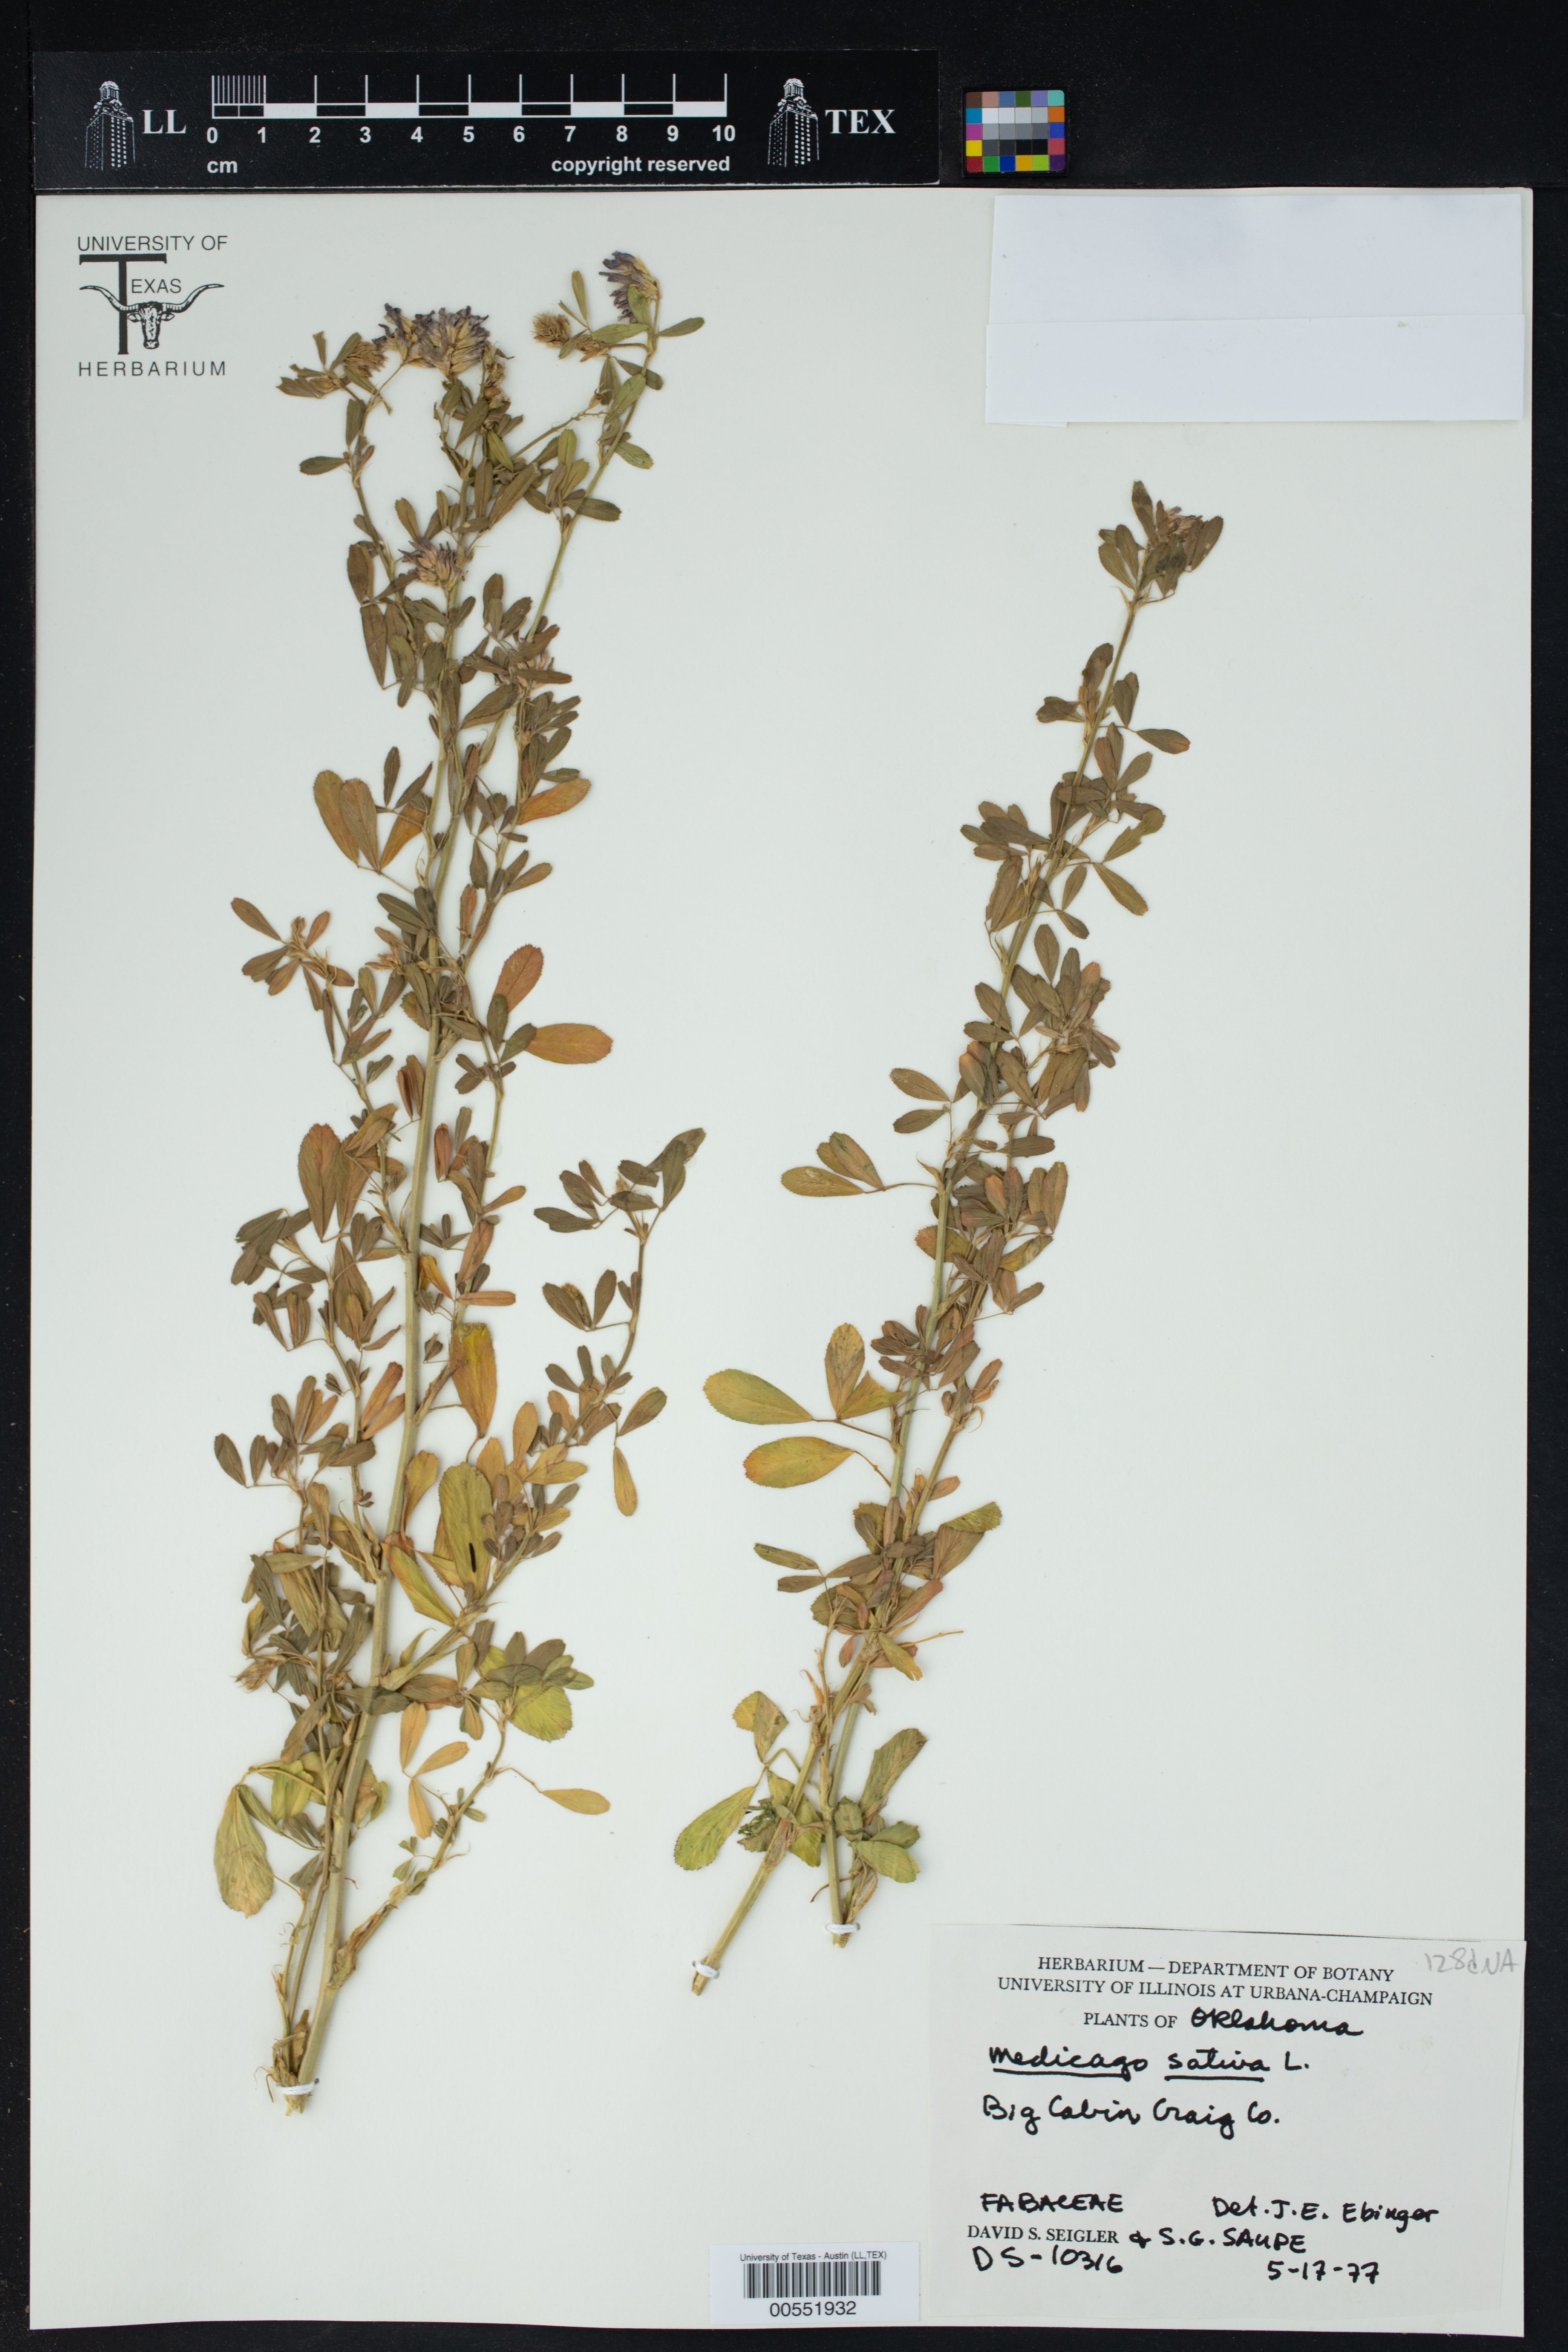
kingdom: Plantae
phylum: Tracheophyta
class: Magnoliopsida
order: Fabales
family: Fabaceae
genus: Medicago
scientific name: Medicago sativa
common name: Alfalfa
